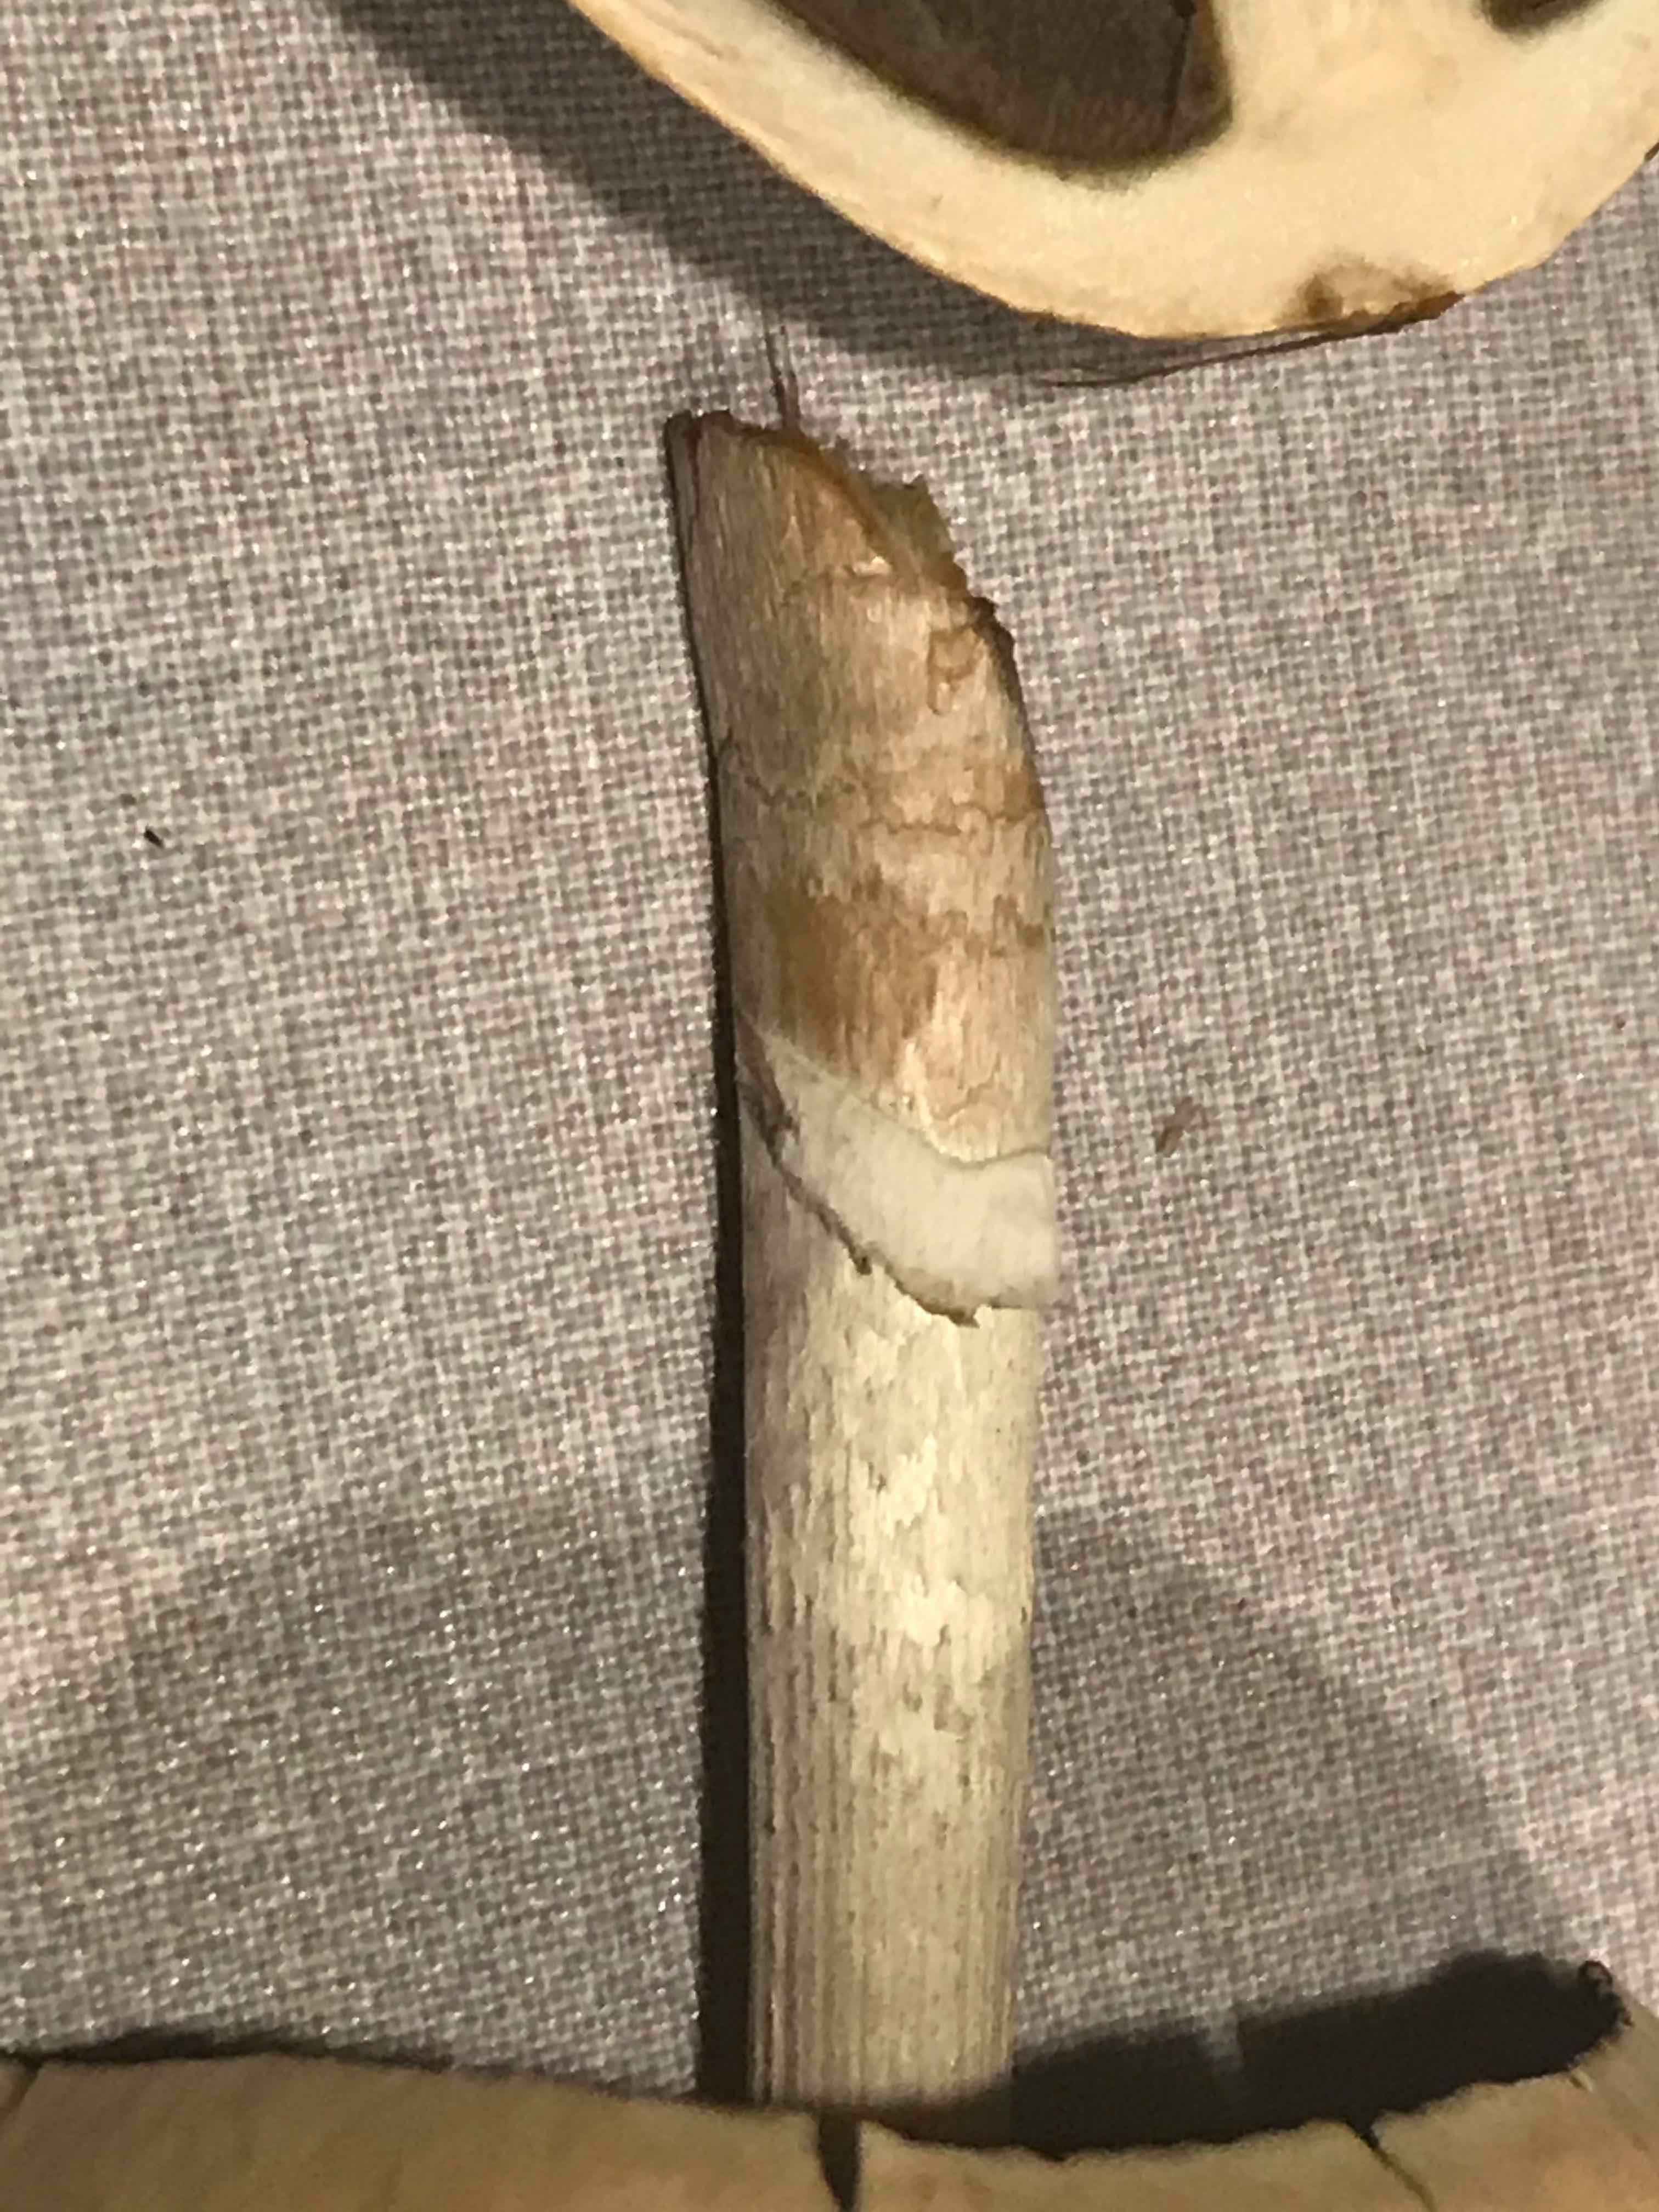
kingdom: Fungi
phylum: Basidiomycota
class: Agaricomycetes
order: Agaricales
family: Bolbitiaceae
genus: Panaeolus
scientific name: Panaeolus semiovatus
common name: ring-glanshat
